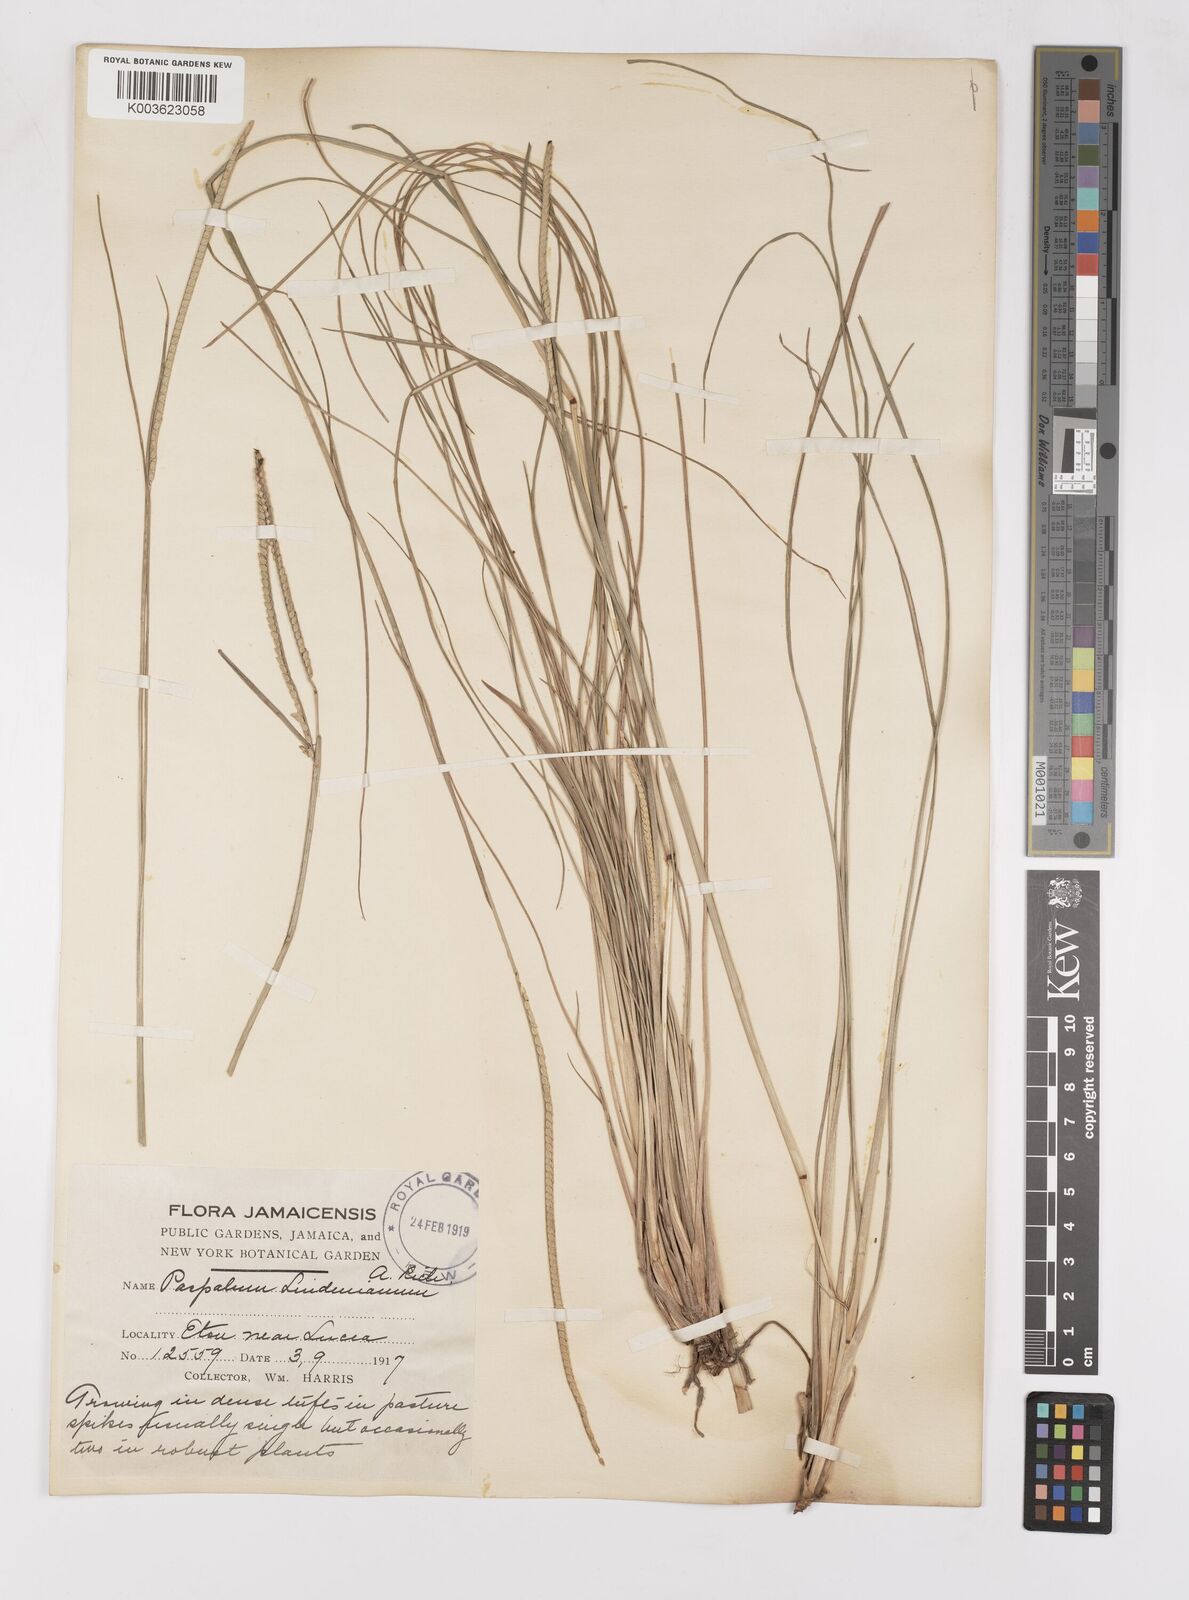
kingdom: Plantae
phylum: Tracheophyta
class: Liliopsida
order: Poales
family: Poaceae
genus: Paspalum
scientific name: Paspalum lindenianum
